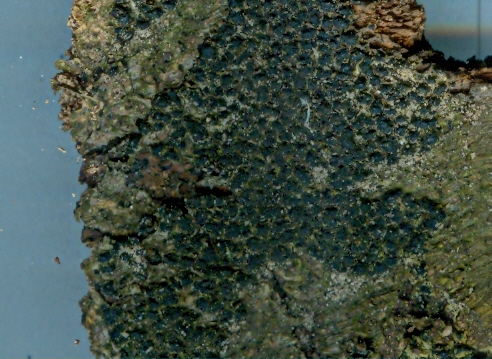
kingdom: Fungi
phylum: Ascomycota
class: Sordariomycetes
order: Xylariales
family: Melogrammataceae
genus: Melogramma
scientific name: Melogramma spiniferum
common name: bøgefod-kulhals
